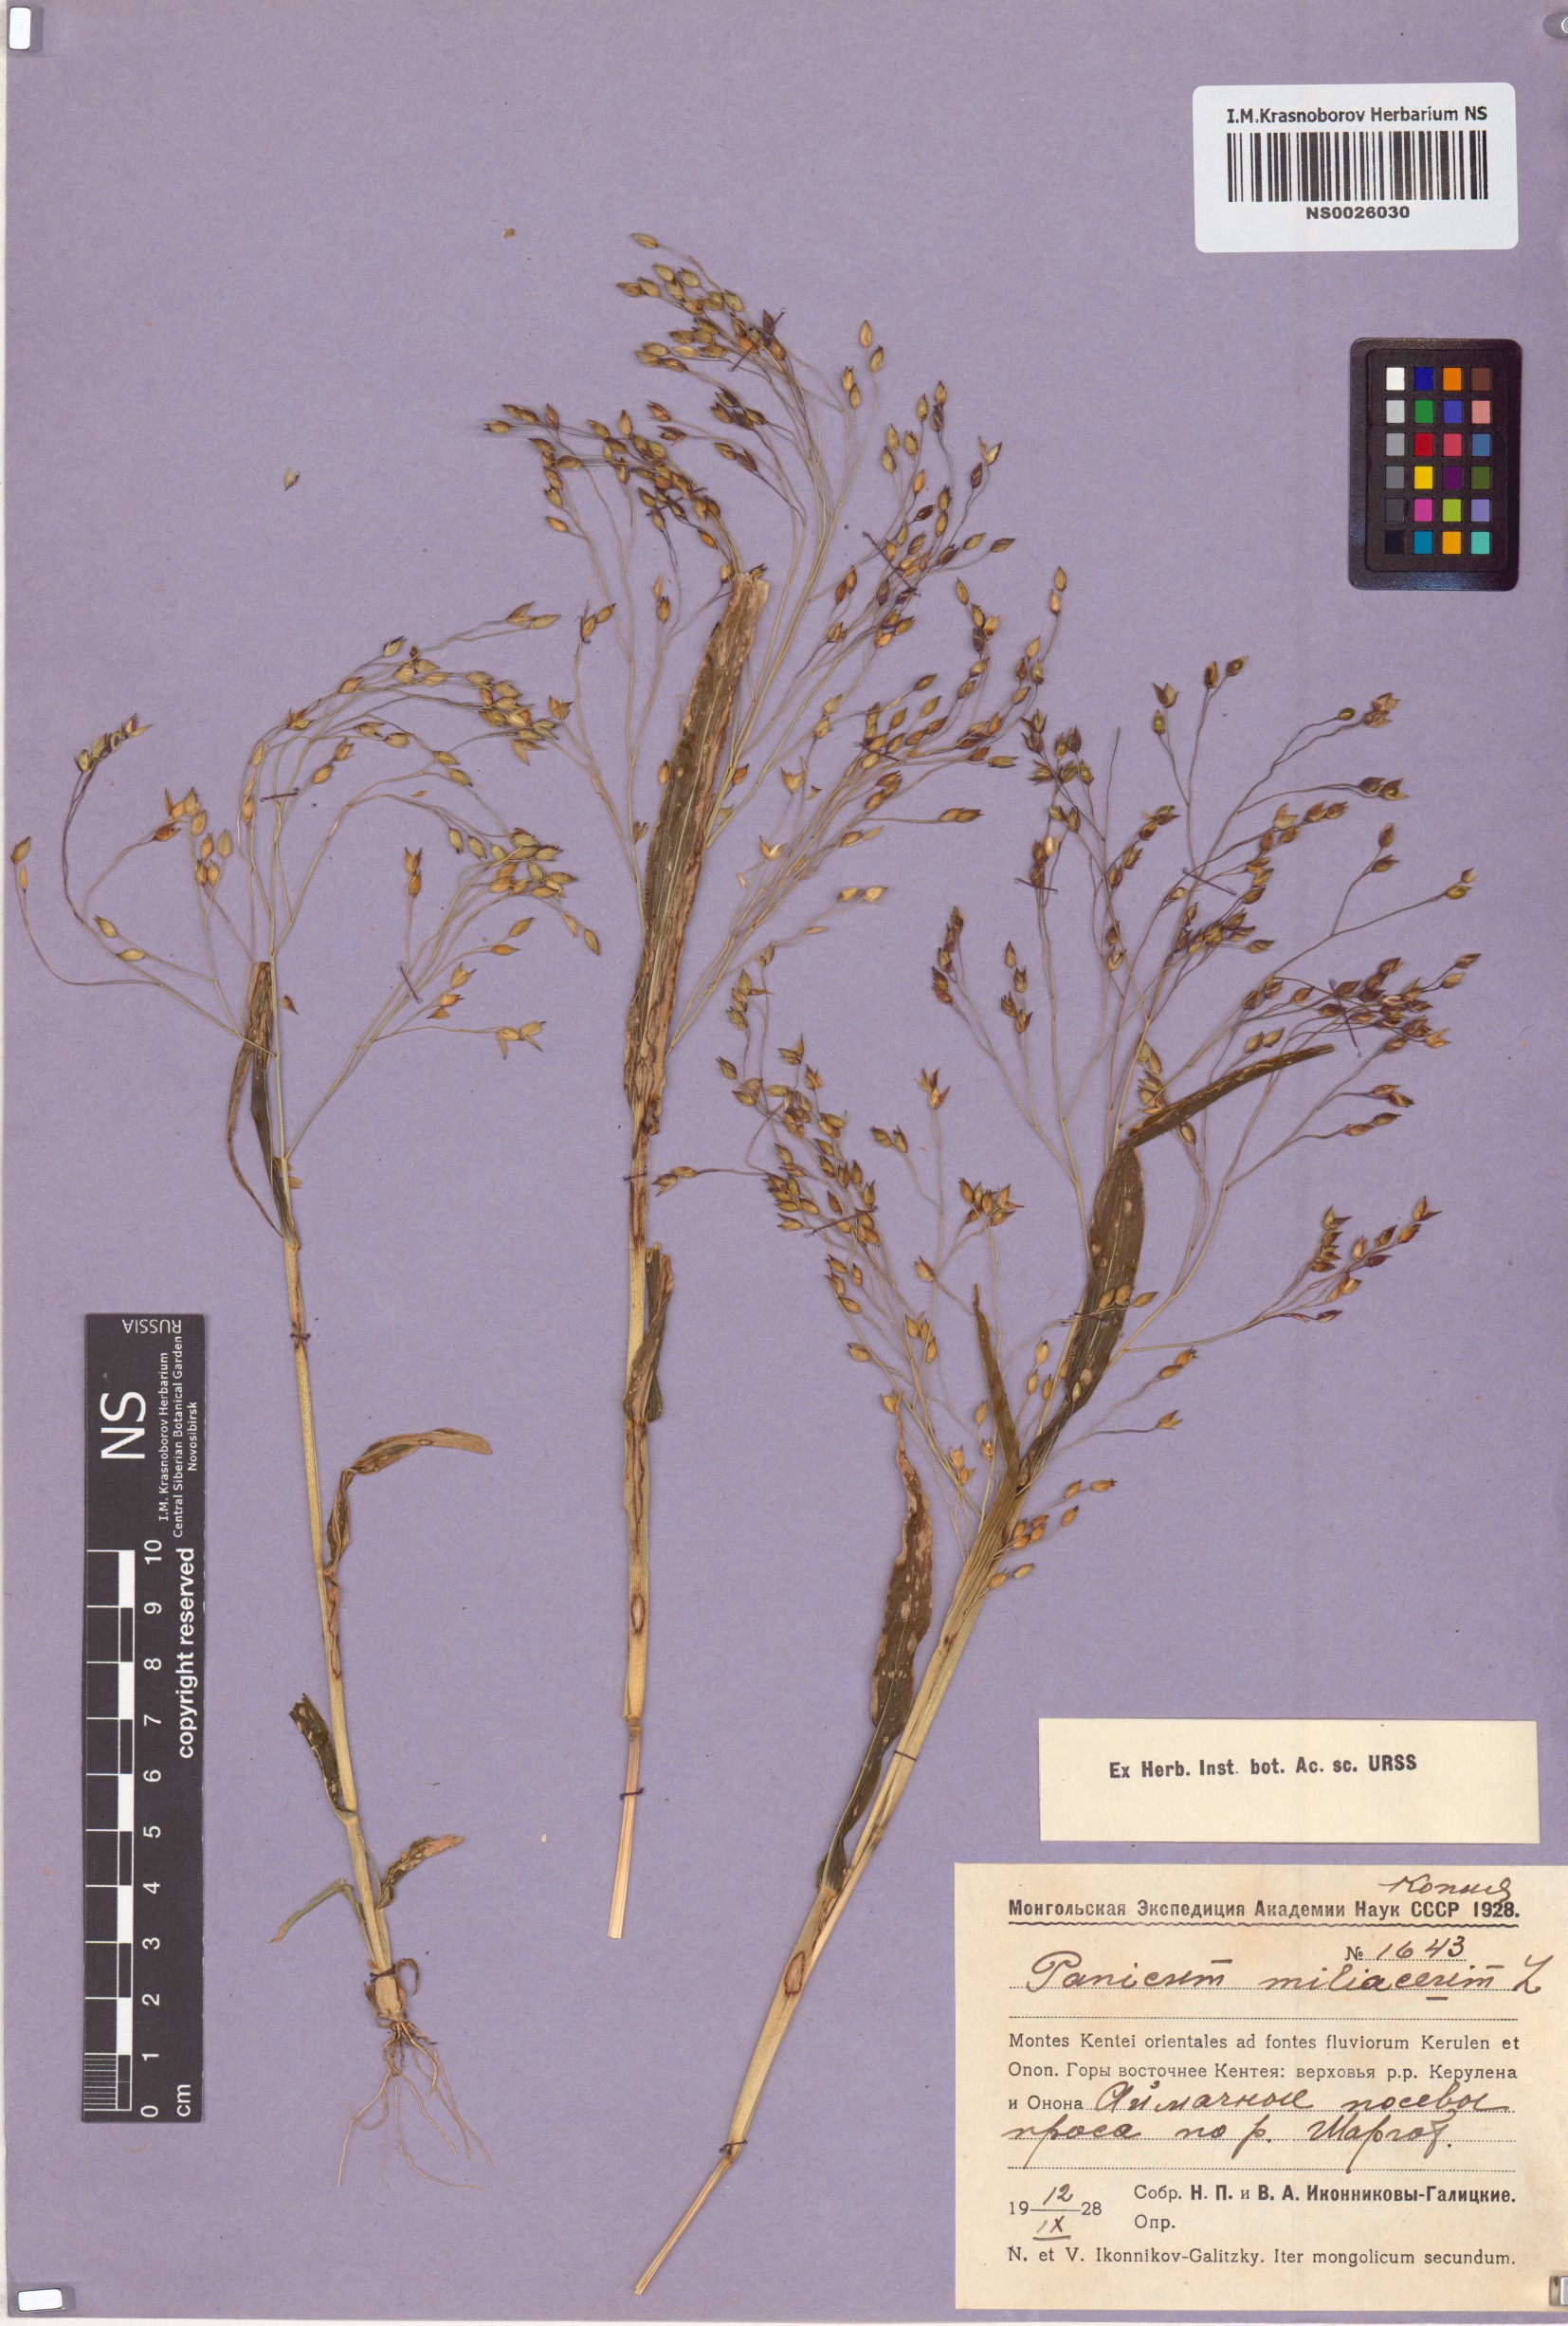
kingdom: Plantae
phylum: Tracheophyta
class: Liliopsida
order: Poales
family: Poaceae
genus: Panicum
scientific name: Panicum miliaceum
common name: Common millet
